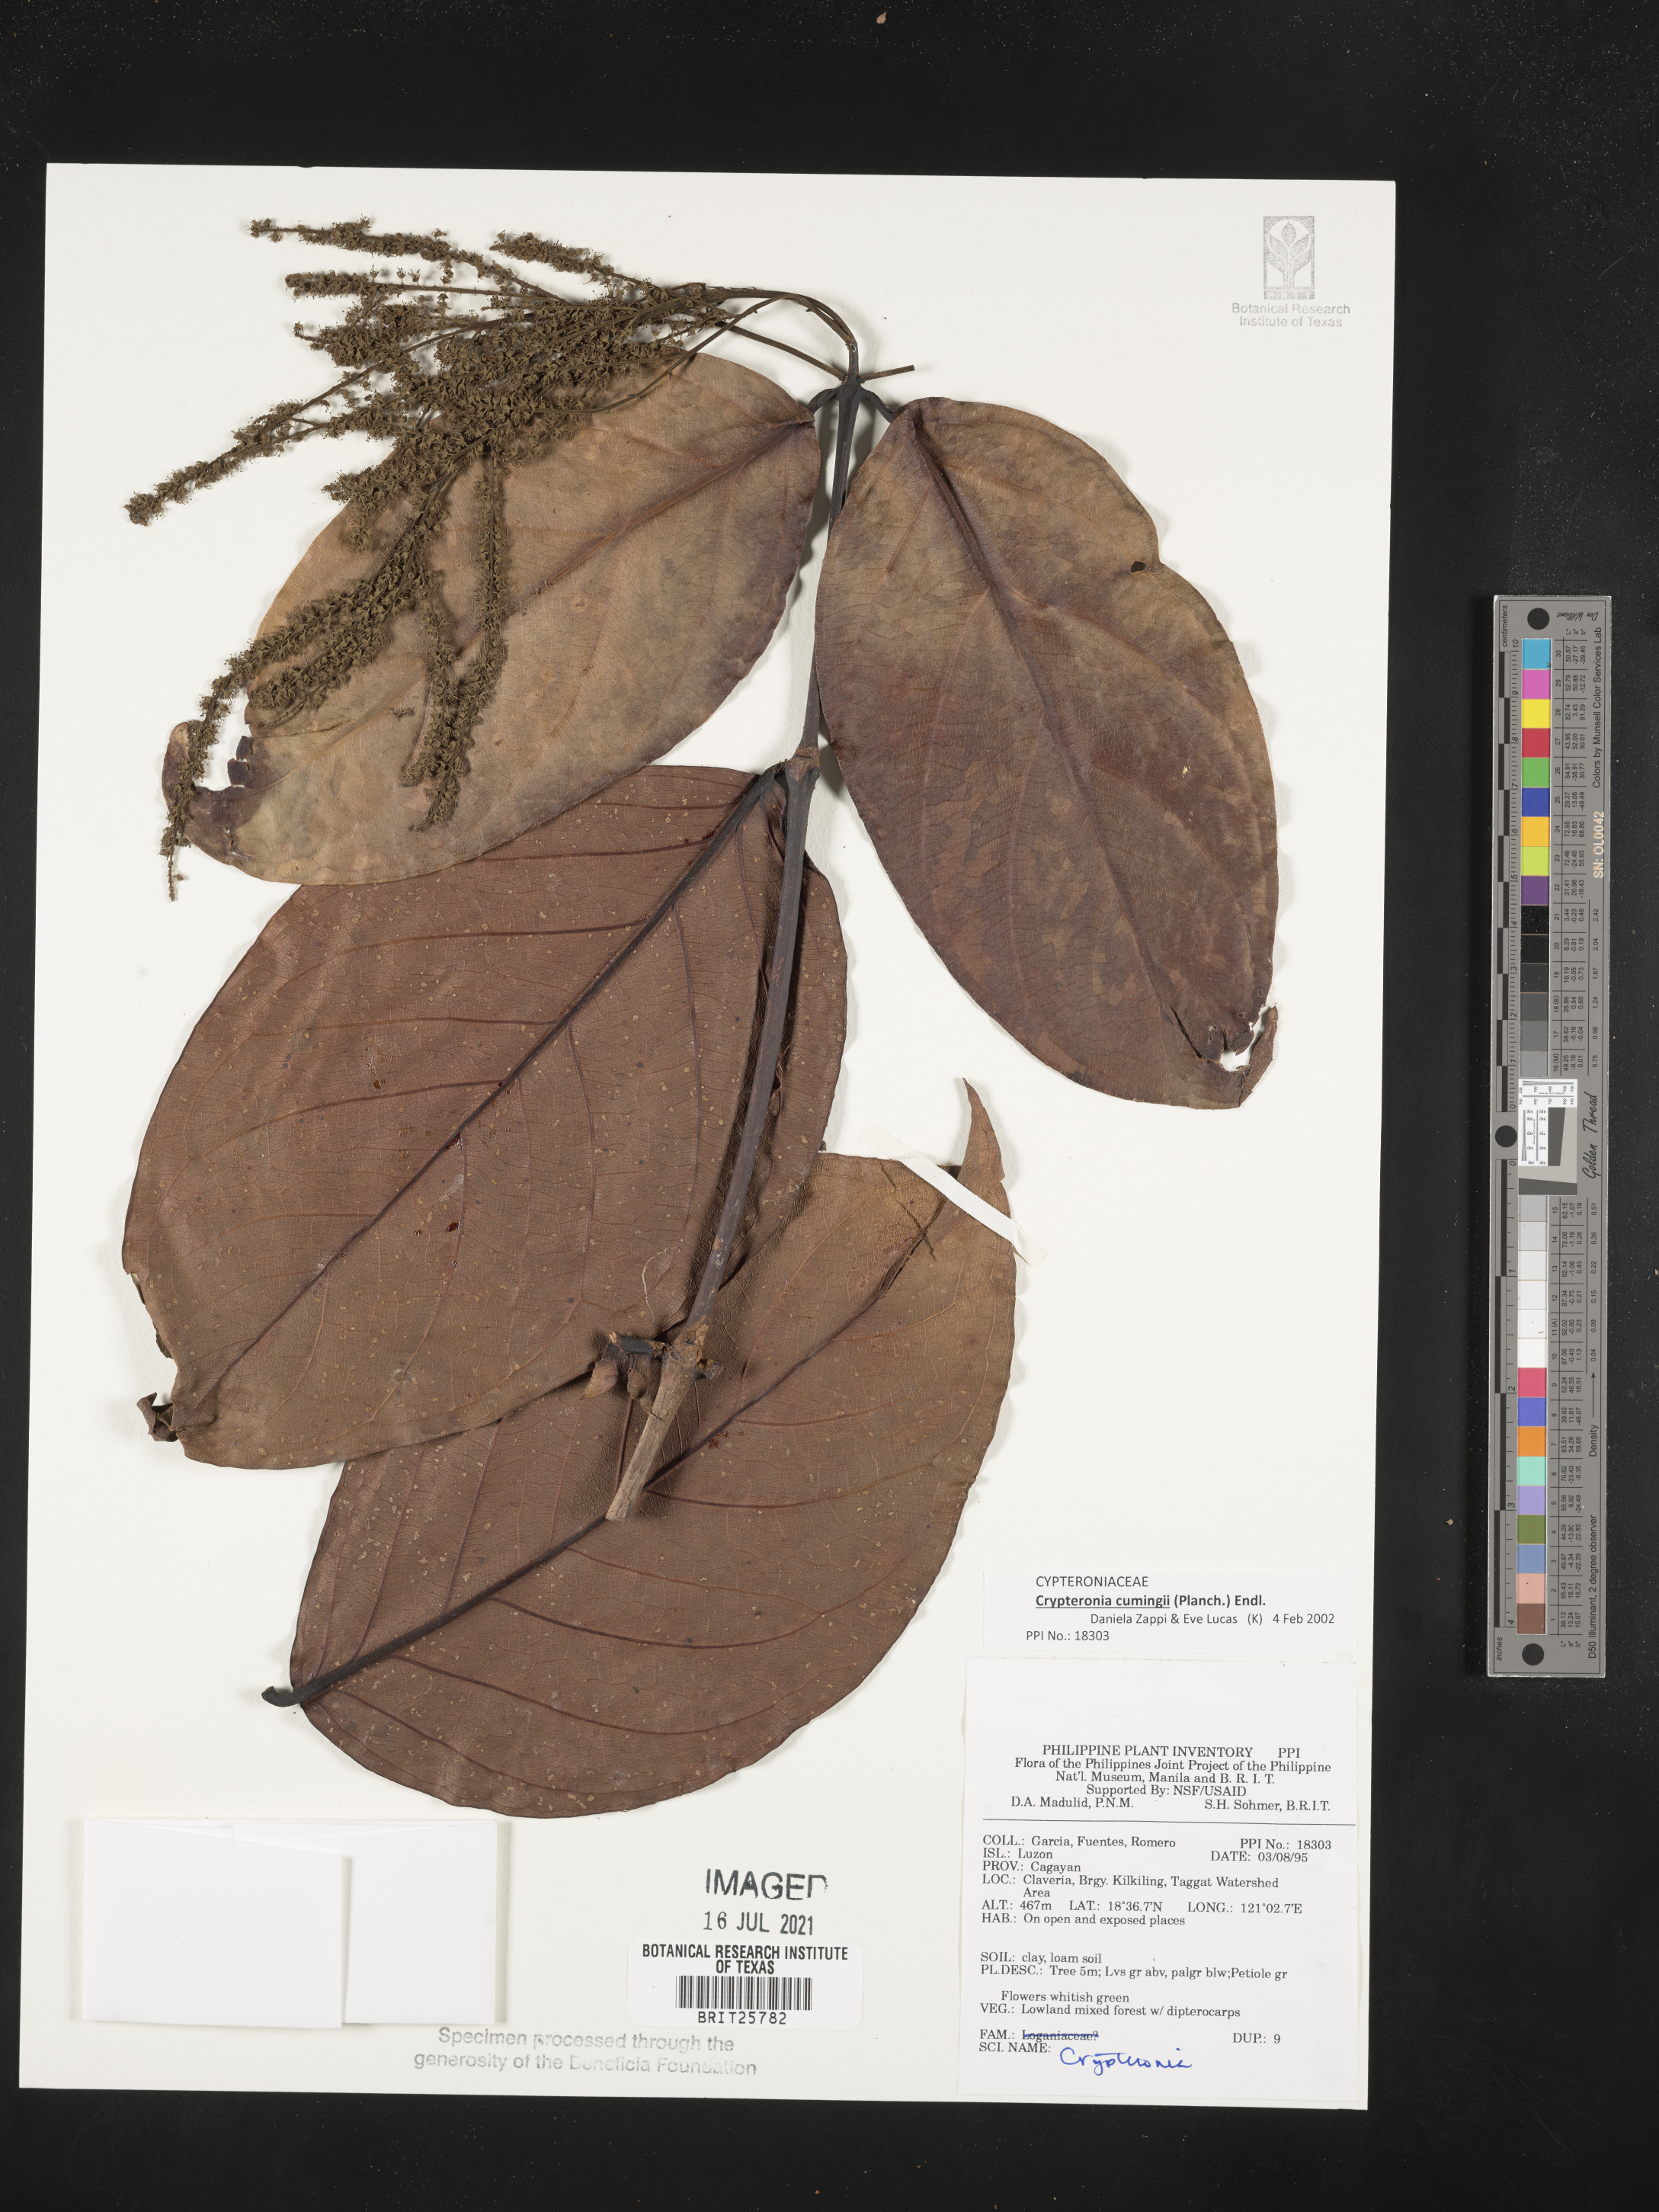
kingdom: Plantae
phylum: Tracheophyta
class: Magnoliopsida
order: Myrtales
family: Crypteroniaceae
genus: Crypteronia
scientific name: Crypteronia
